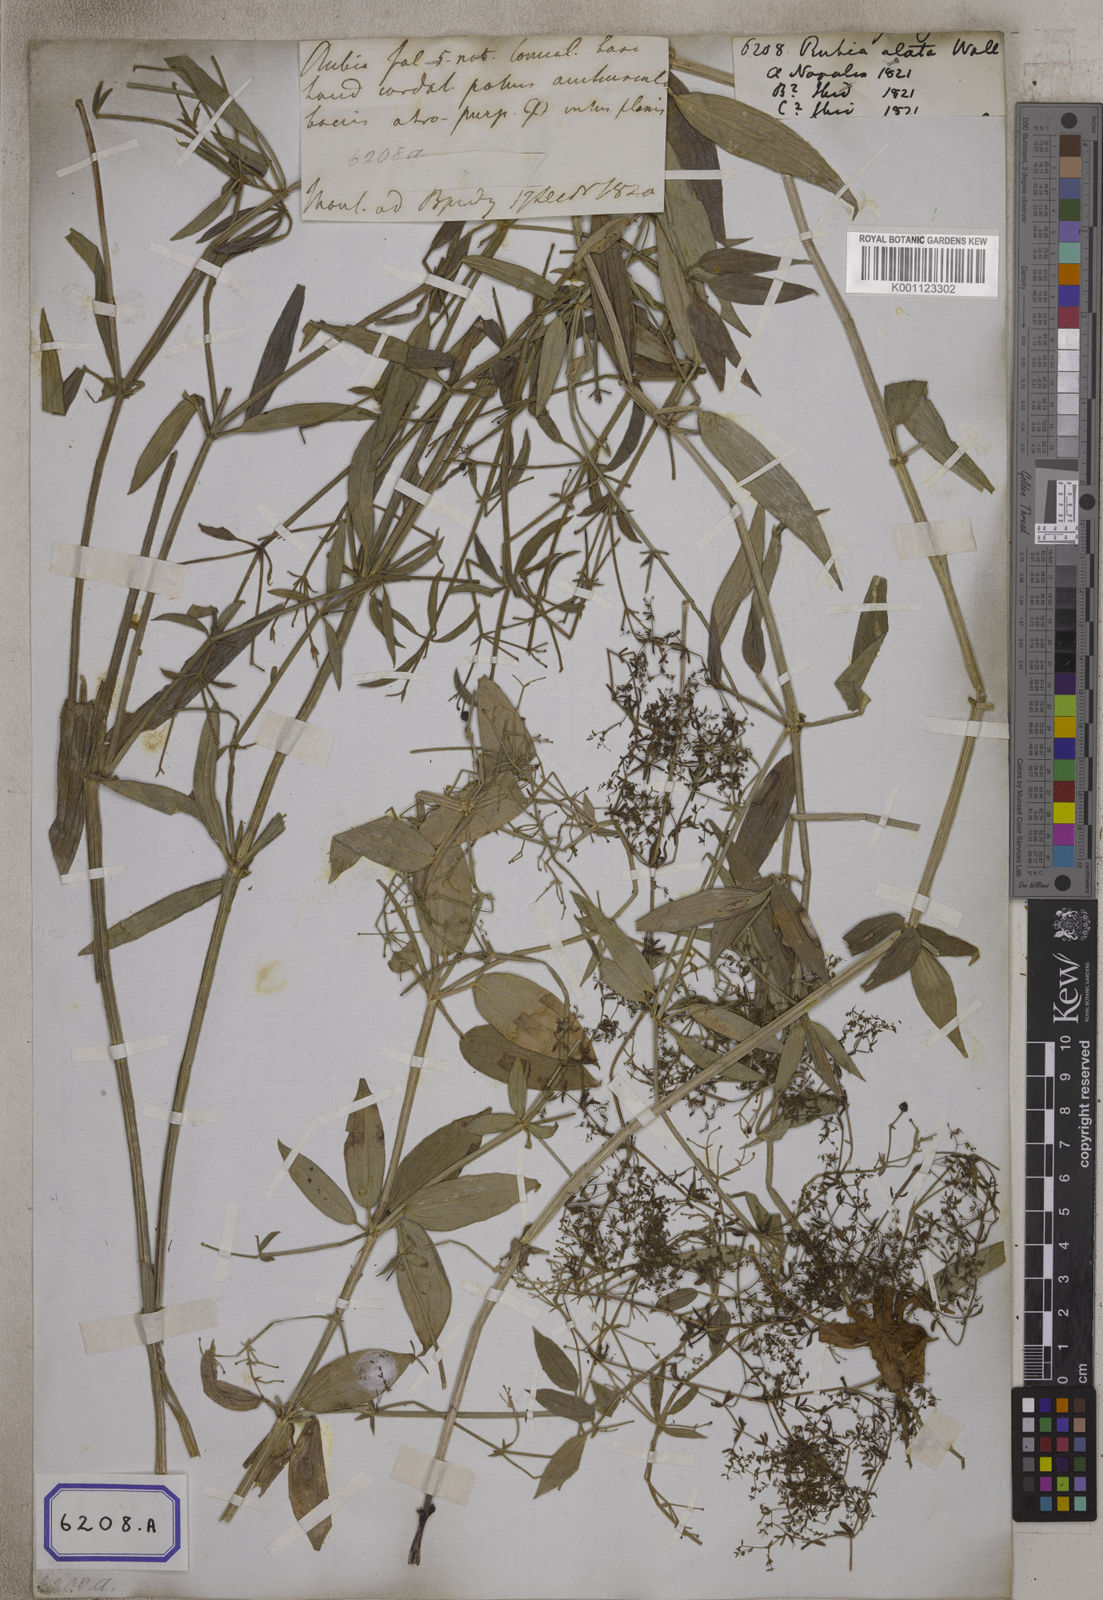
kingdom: Plantae
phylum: Tracheophyta
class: Magnoliopsida
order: Gentianales
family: Rubiaceae
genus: Rubia
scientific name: Rubia alata
